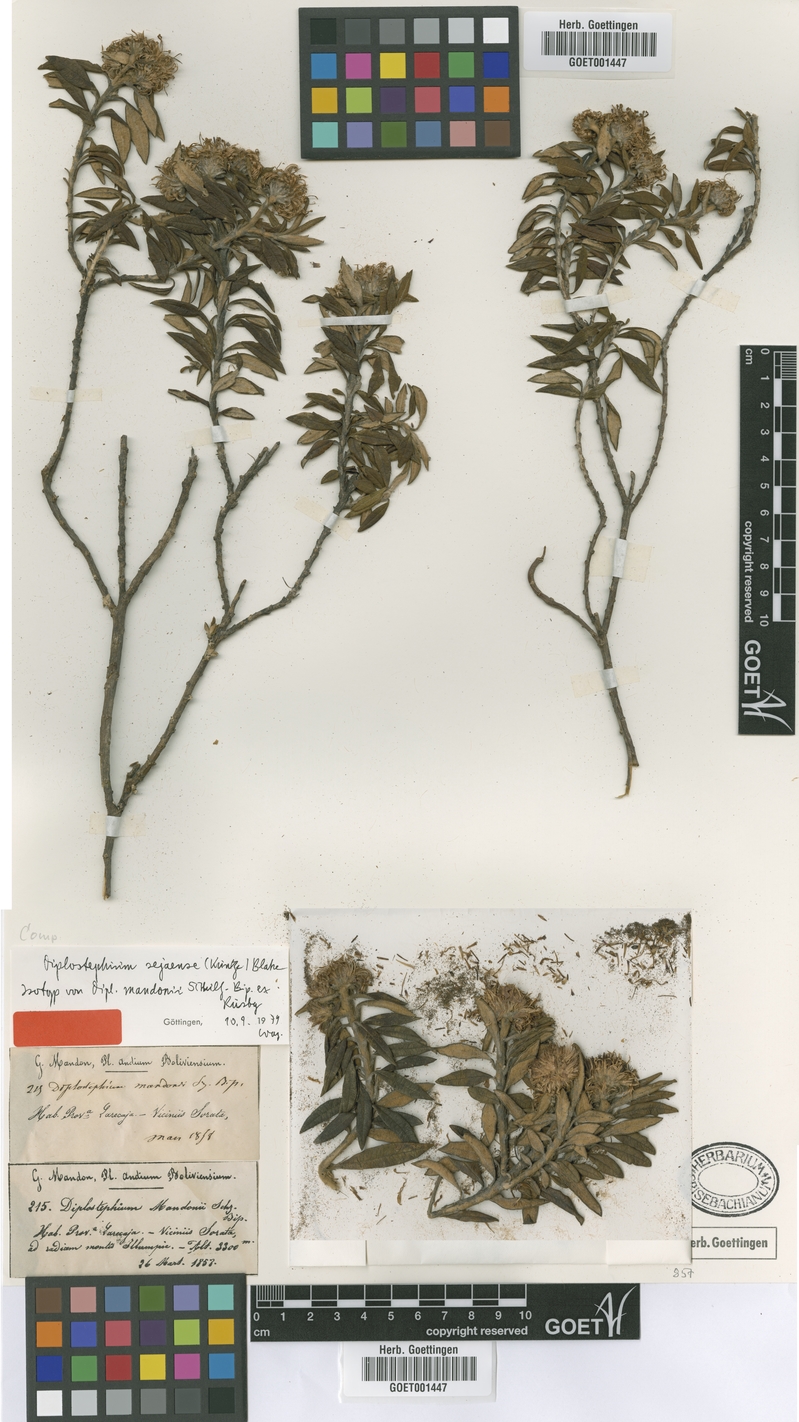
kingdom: Plantae
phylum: Tracheophyta
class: Magnoliopsida
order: Asterales
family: Asteraceae
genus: Diplostephium
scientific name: Diplostephium haenkei
